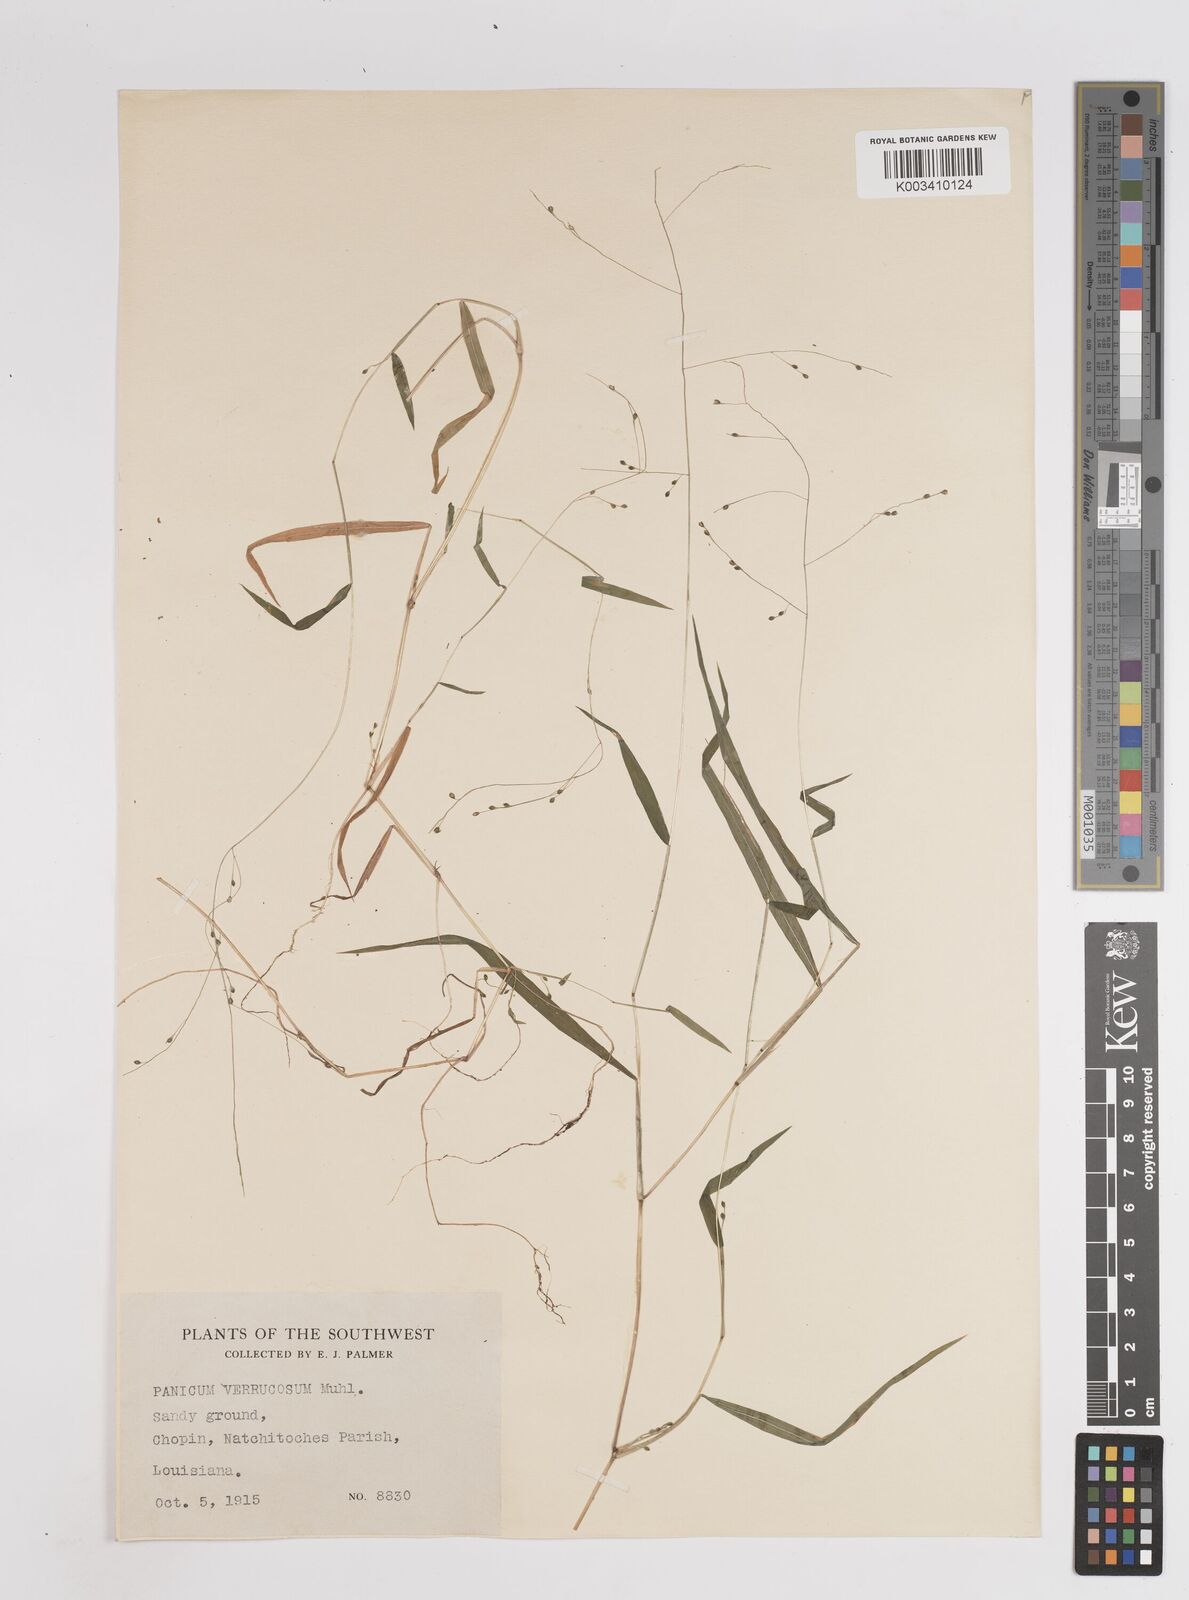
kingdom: Plantae
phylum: Tracheophyta
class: Liliopsida
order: Poales
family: Poaceae
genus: Kellochloa
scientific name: Kellochloa verrucosa
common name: Warty panic grass
